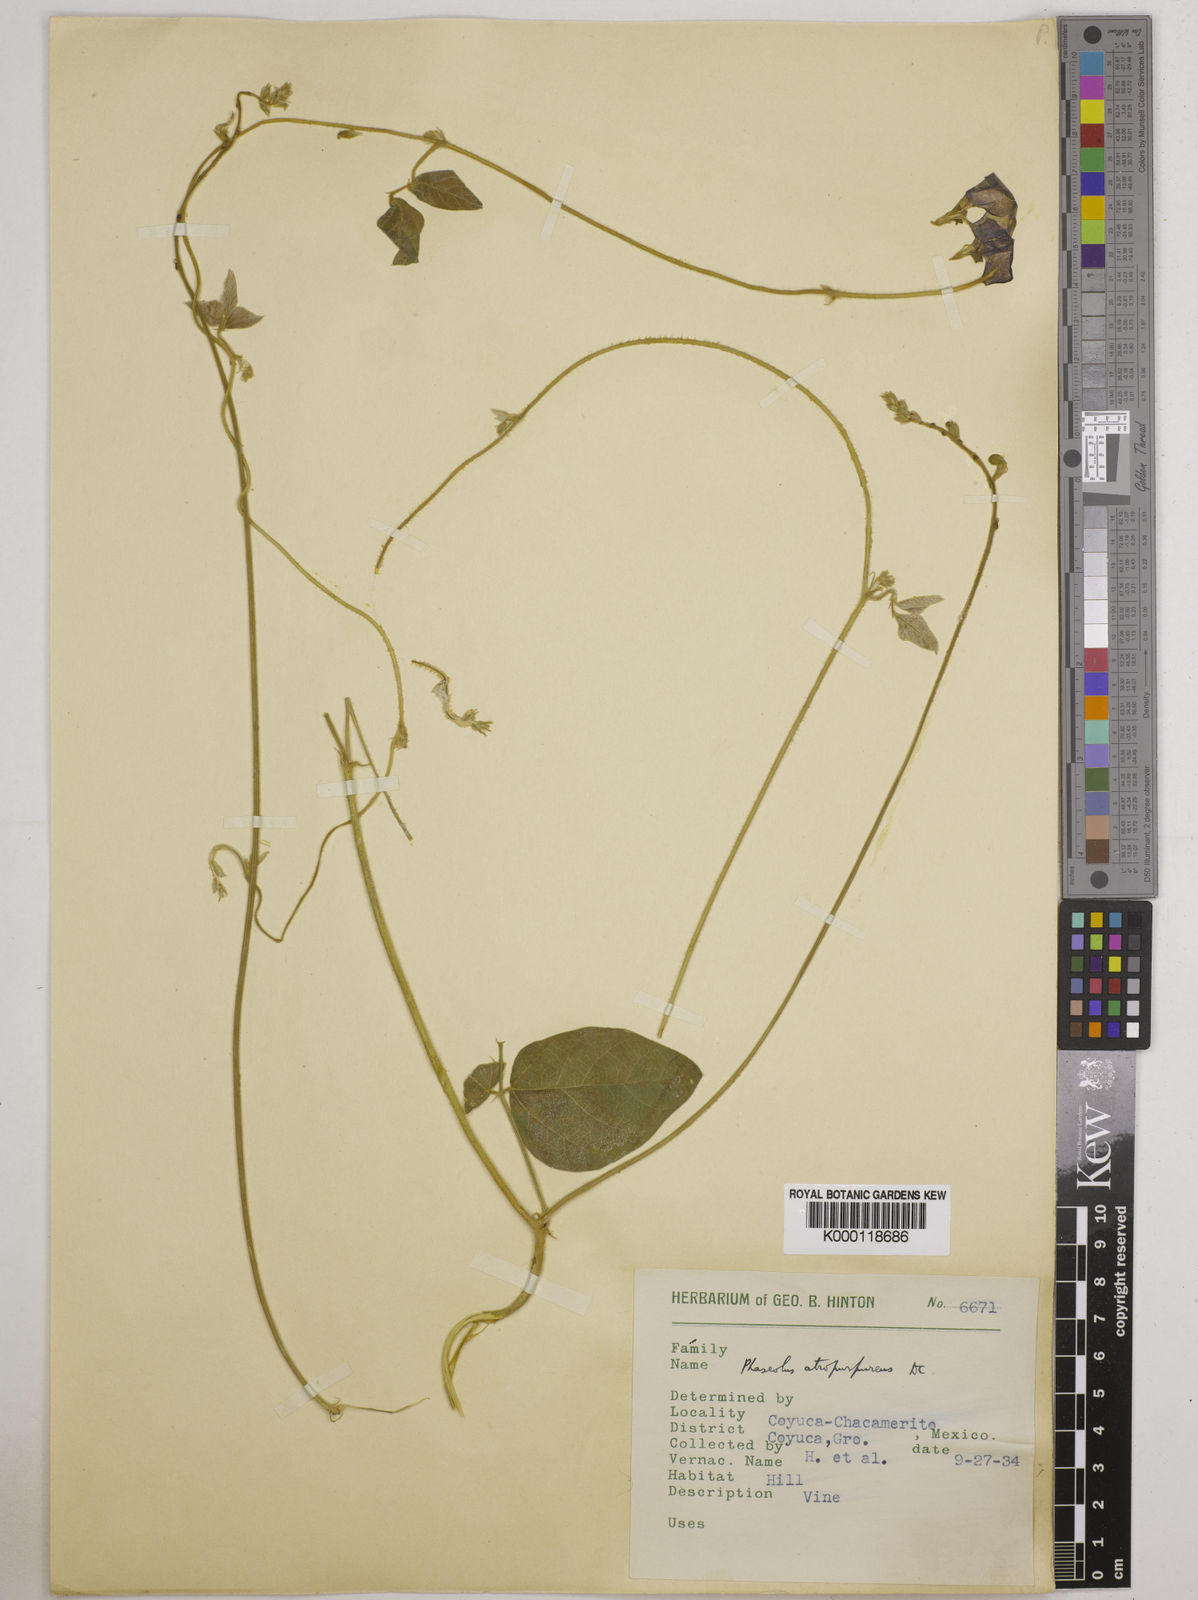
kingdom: Plantae
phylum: Tracheophyta
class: Magnoliopsida
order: Fabales
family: Fabaceae
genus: Macroptilium
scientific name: Macroptilium atropurpureum
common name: Purple bushbean
